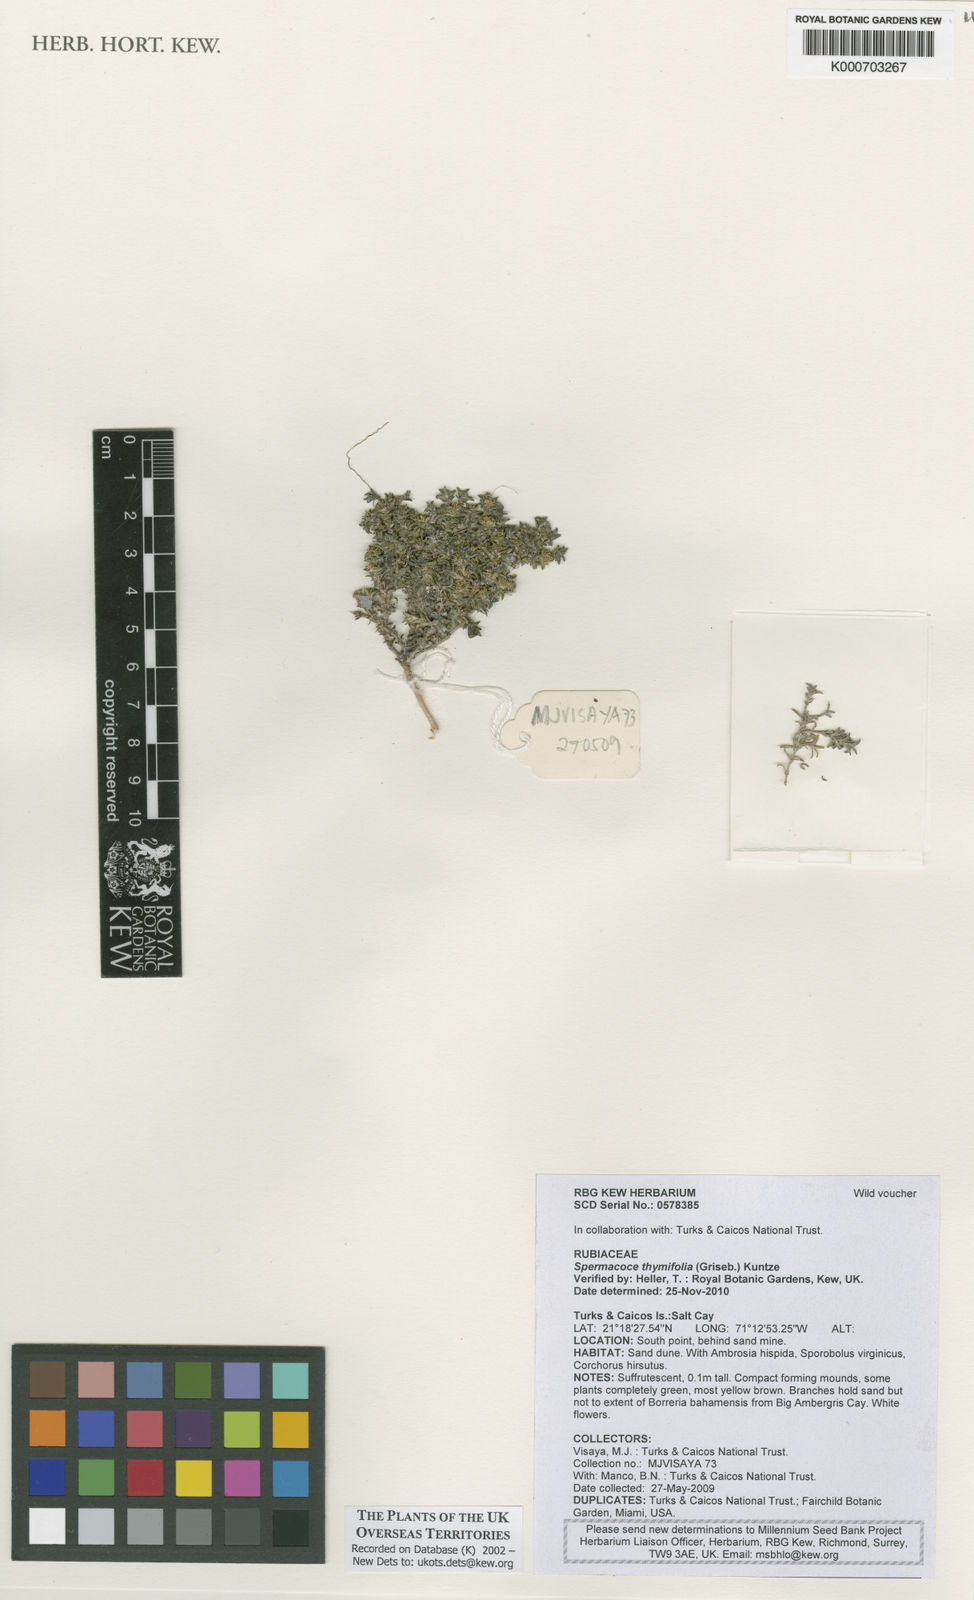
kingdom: Plantae
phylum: Tracheophyta
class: Magnoliopsida
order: Gentianales
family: Rubiaceae
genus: Spermacoce
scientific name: Spermacoce thymifolia
